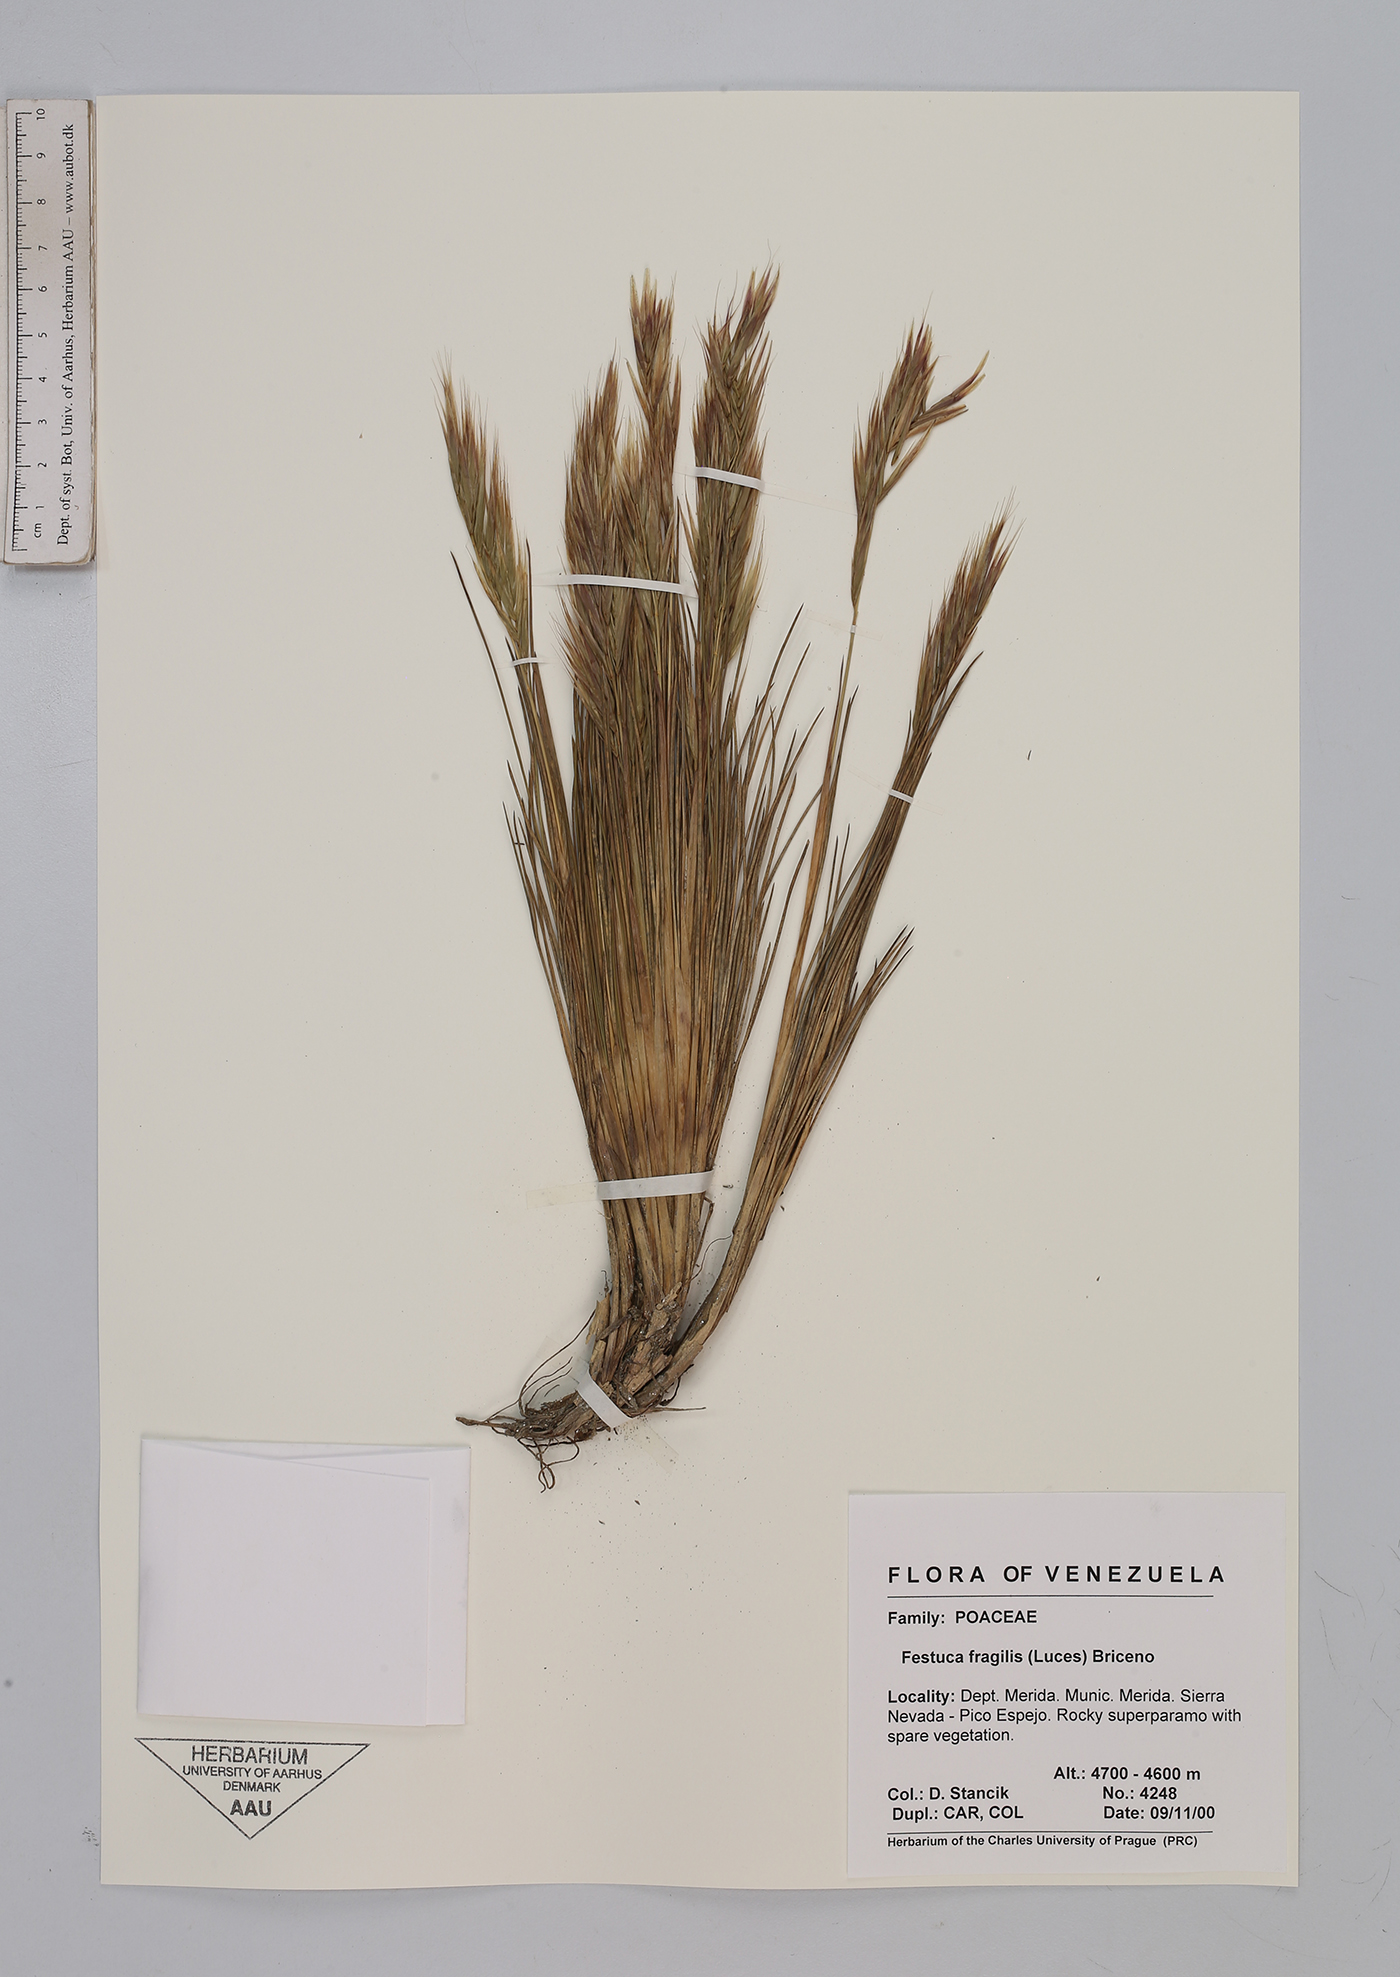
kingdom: Plantae
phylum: Tracheophyta
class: Liliopsida
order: Poales
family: Poaceae
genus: Festuca
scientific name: Festuca fragilis
